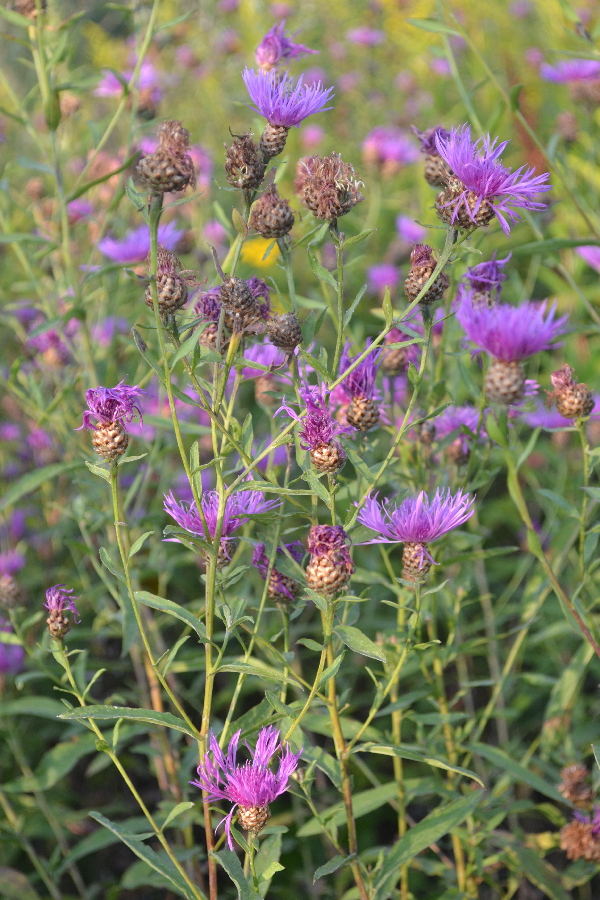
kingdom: Plantae
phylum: Tracheophyta
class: Magnoliopsida
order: Asterales
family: Asteraceae
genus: Centaurea
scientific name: Centaurea jacea
